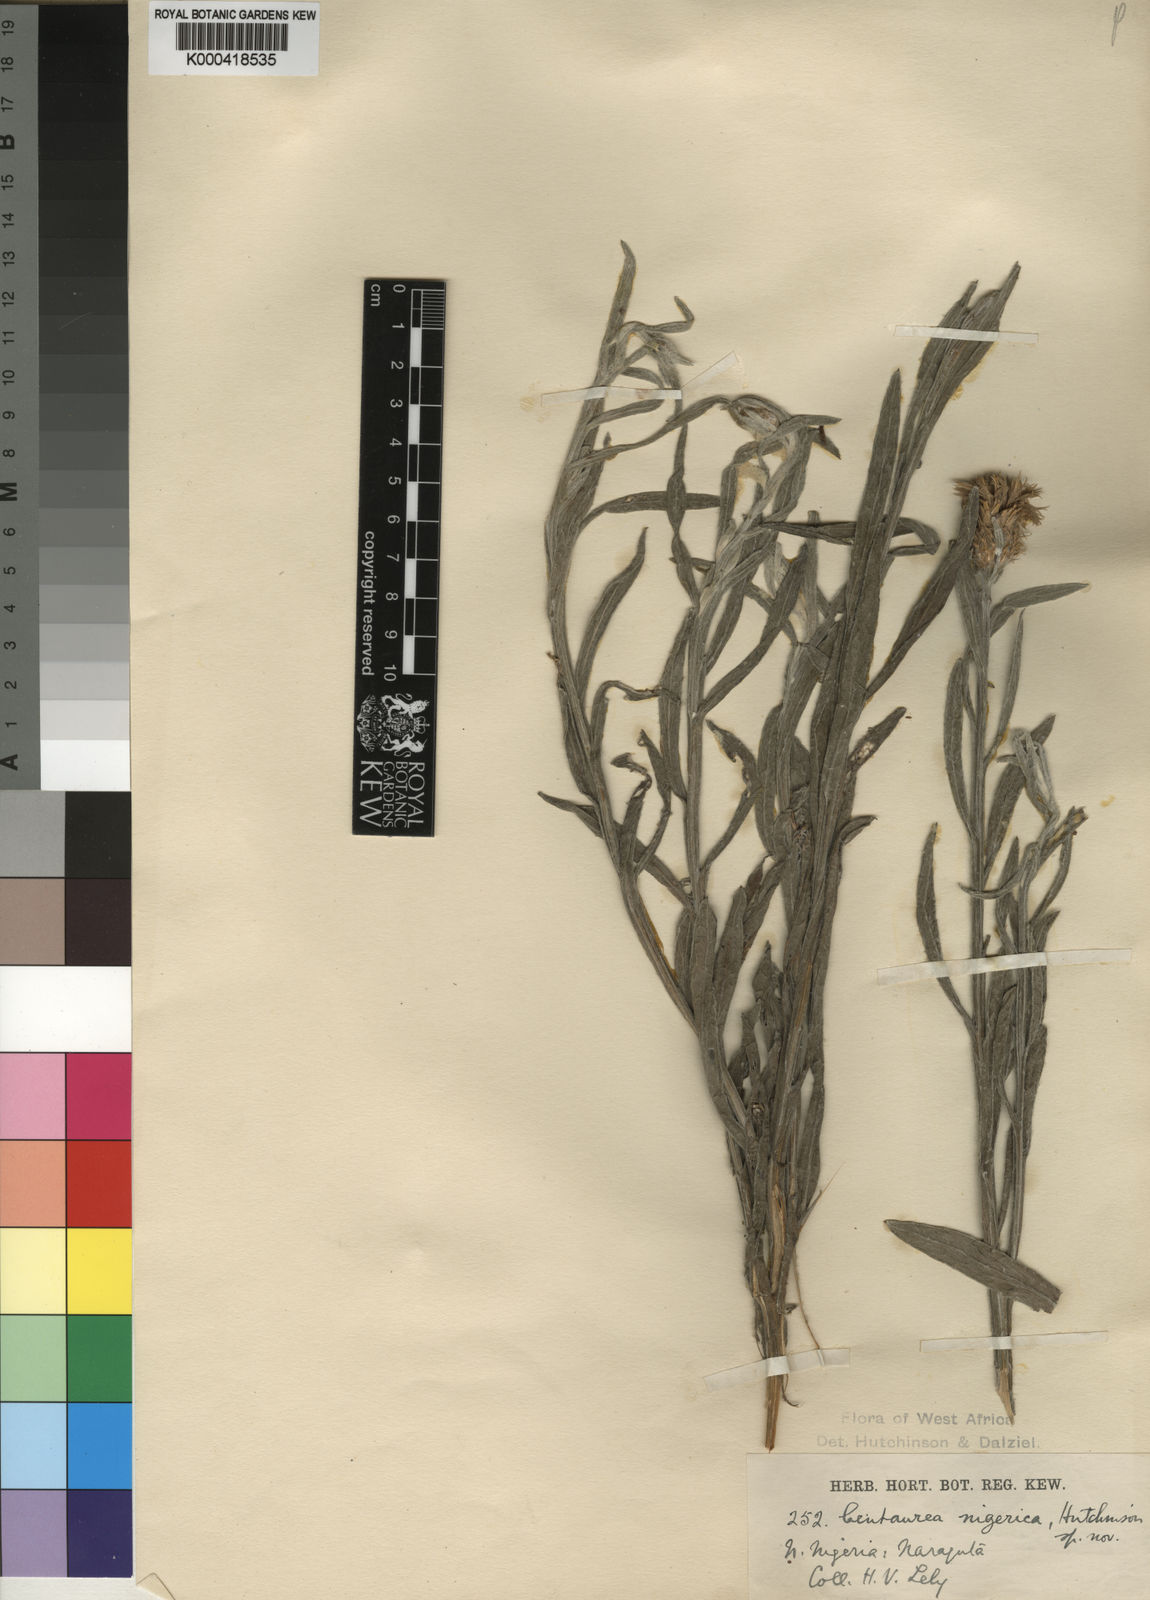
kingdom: Plantae
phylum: Tracheophyta
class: Magnoliopsida
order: Asterales
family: Asteraceae
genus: Centaurea
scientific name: Centaurea nigerica
